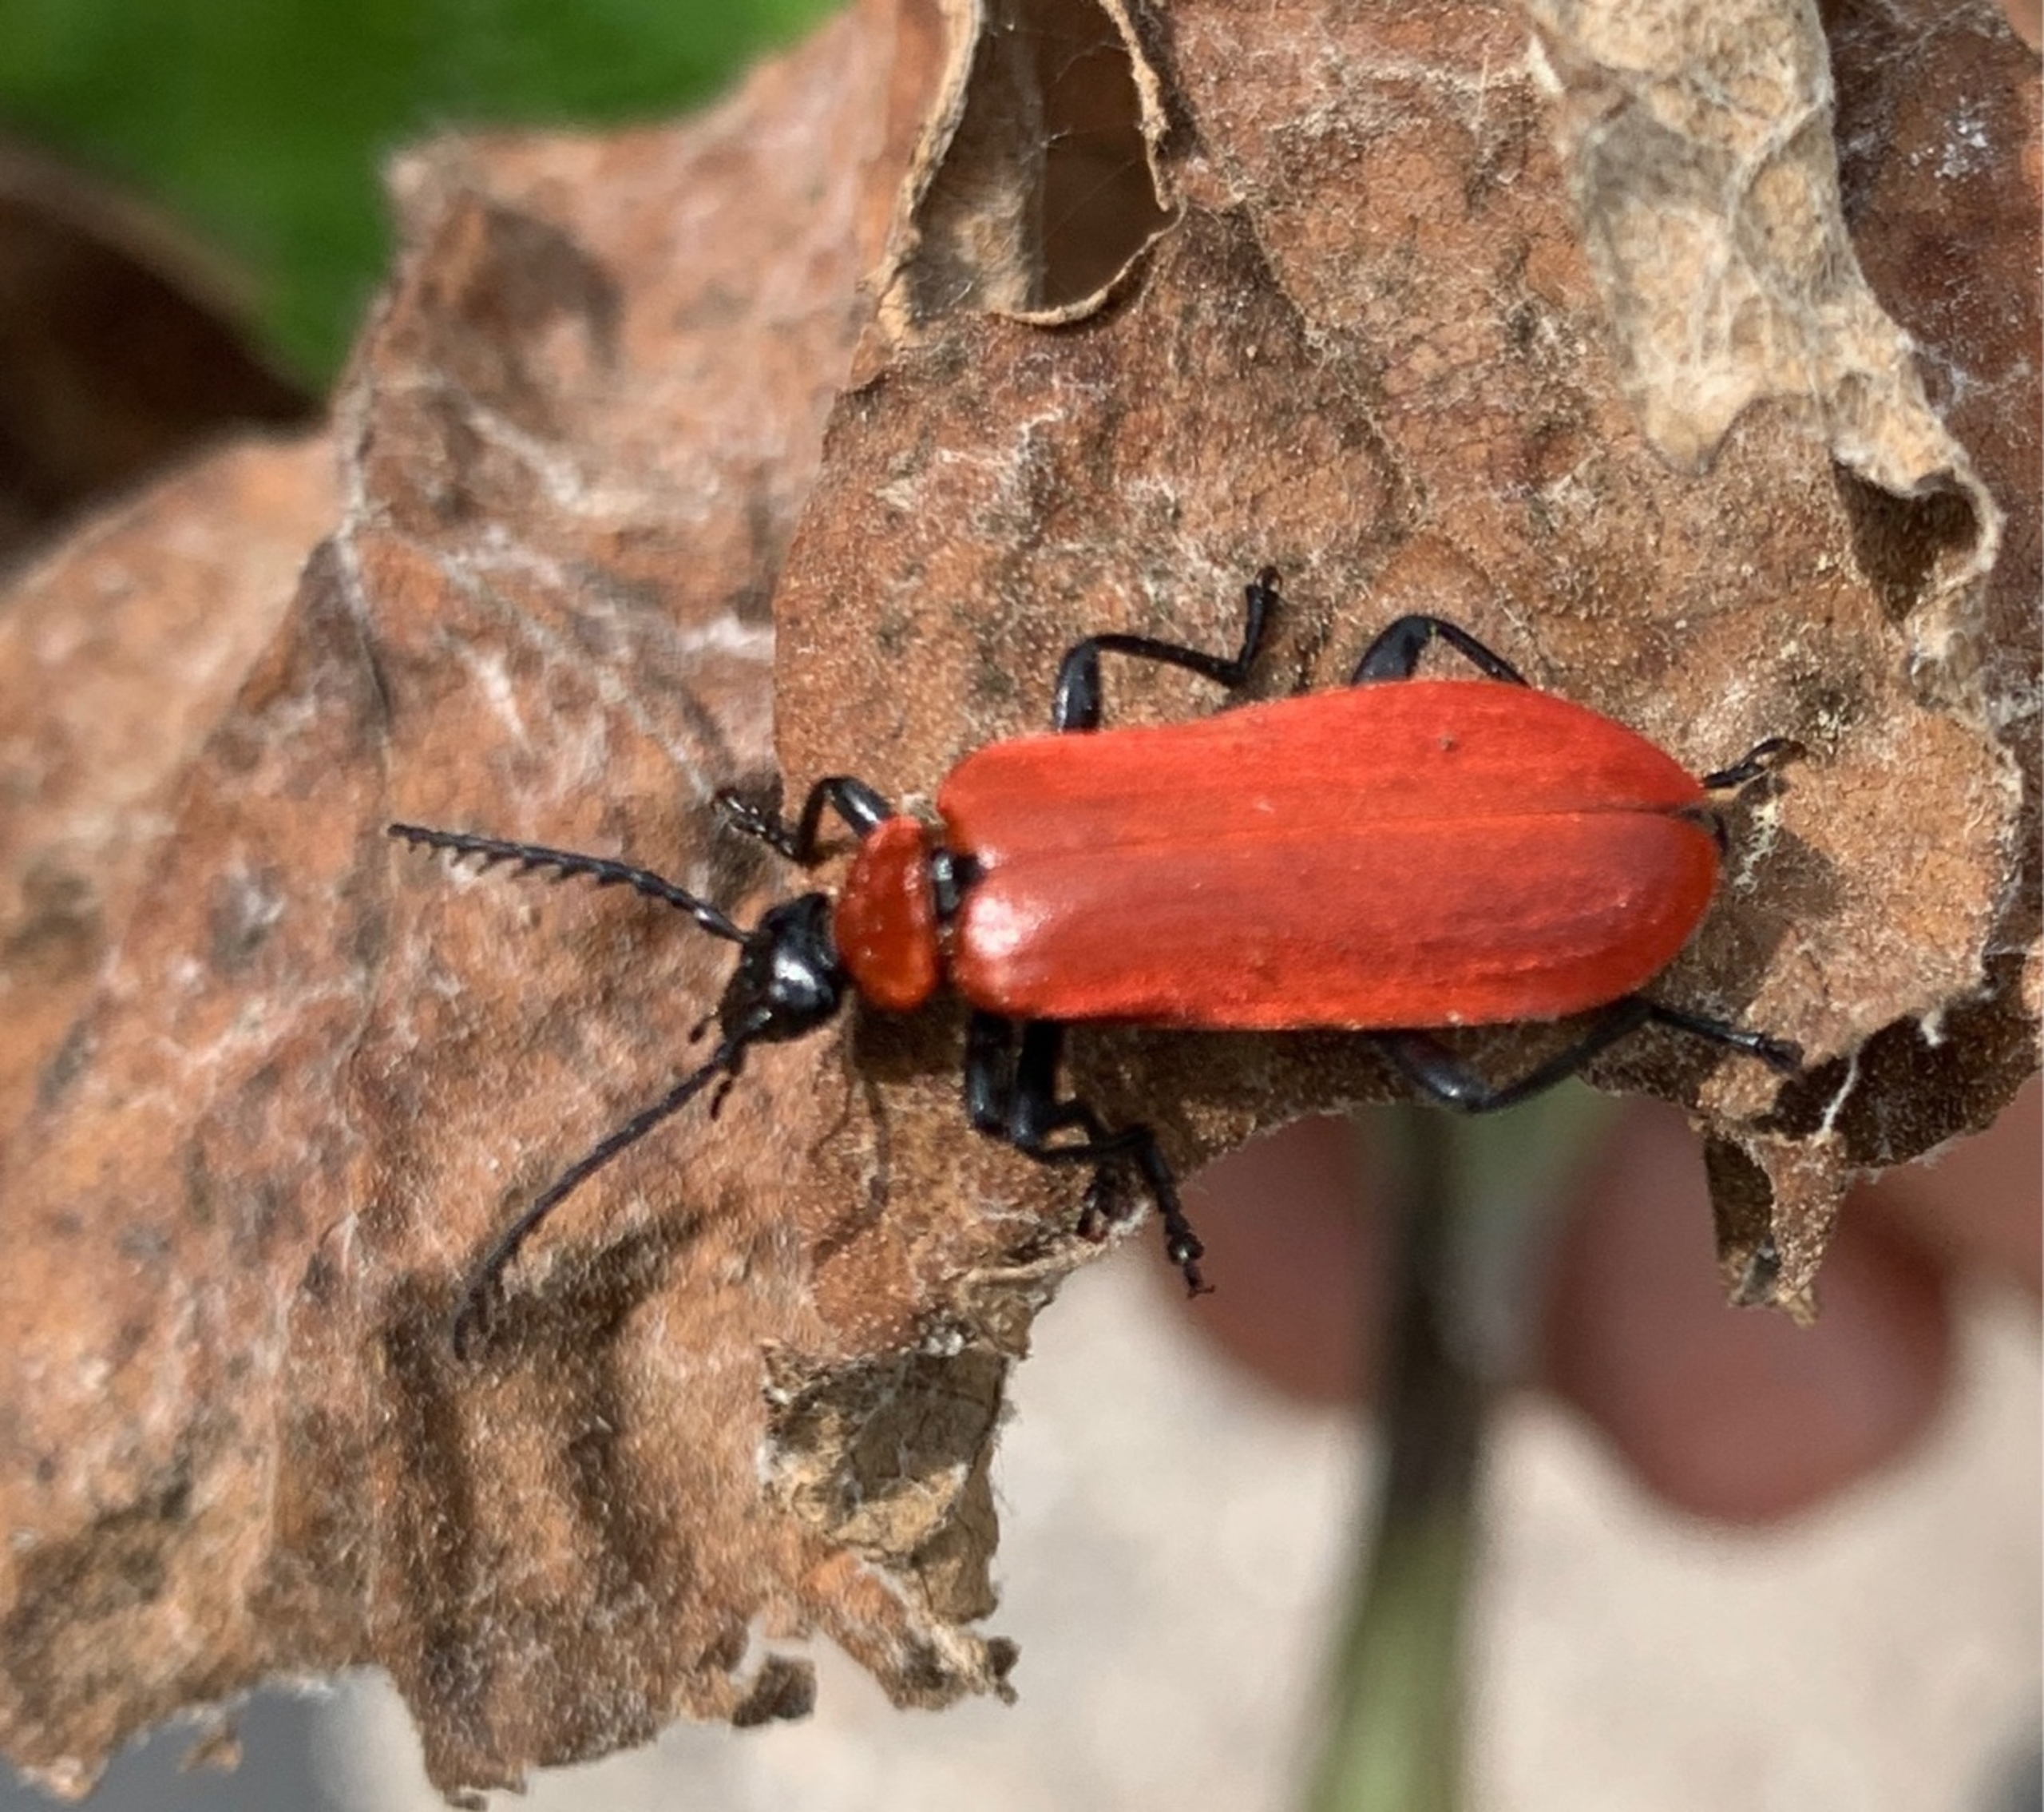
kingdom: Animalia
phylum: Arthropoda
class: Insecta
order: Coleoptera
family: Pyrochroidae
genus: Pyrochroa
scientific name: Pyrochroa coccinea
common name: Sorthovedet kardinalbille
